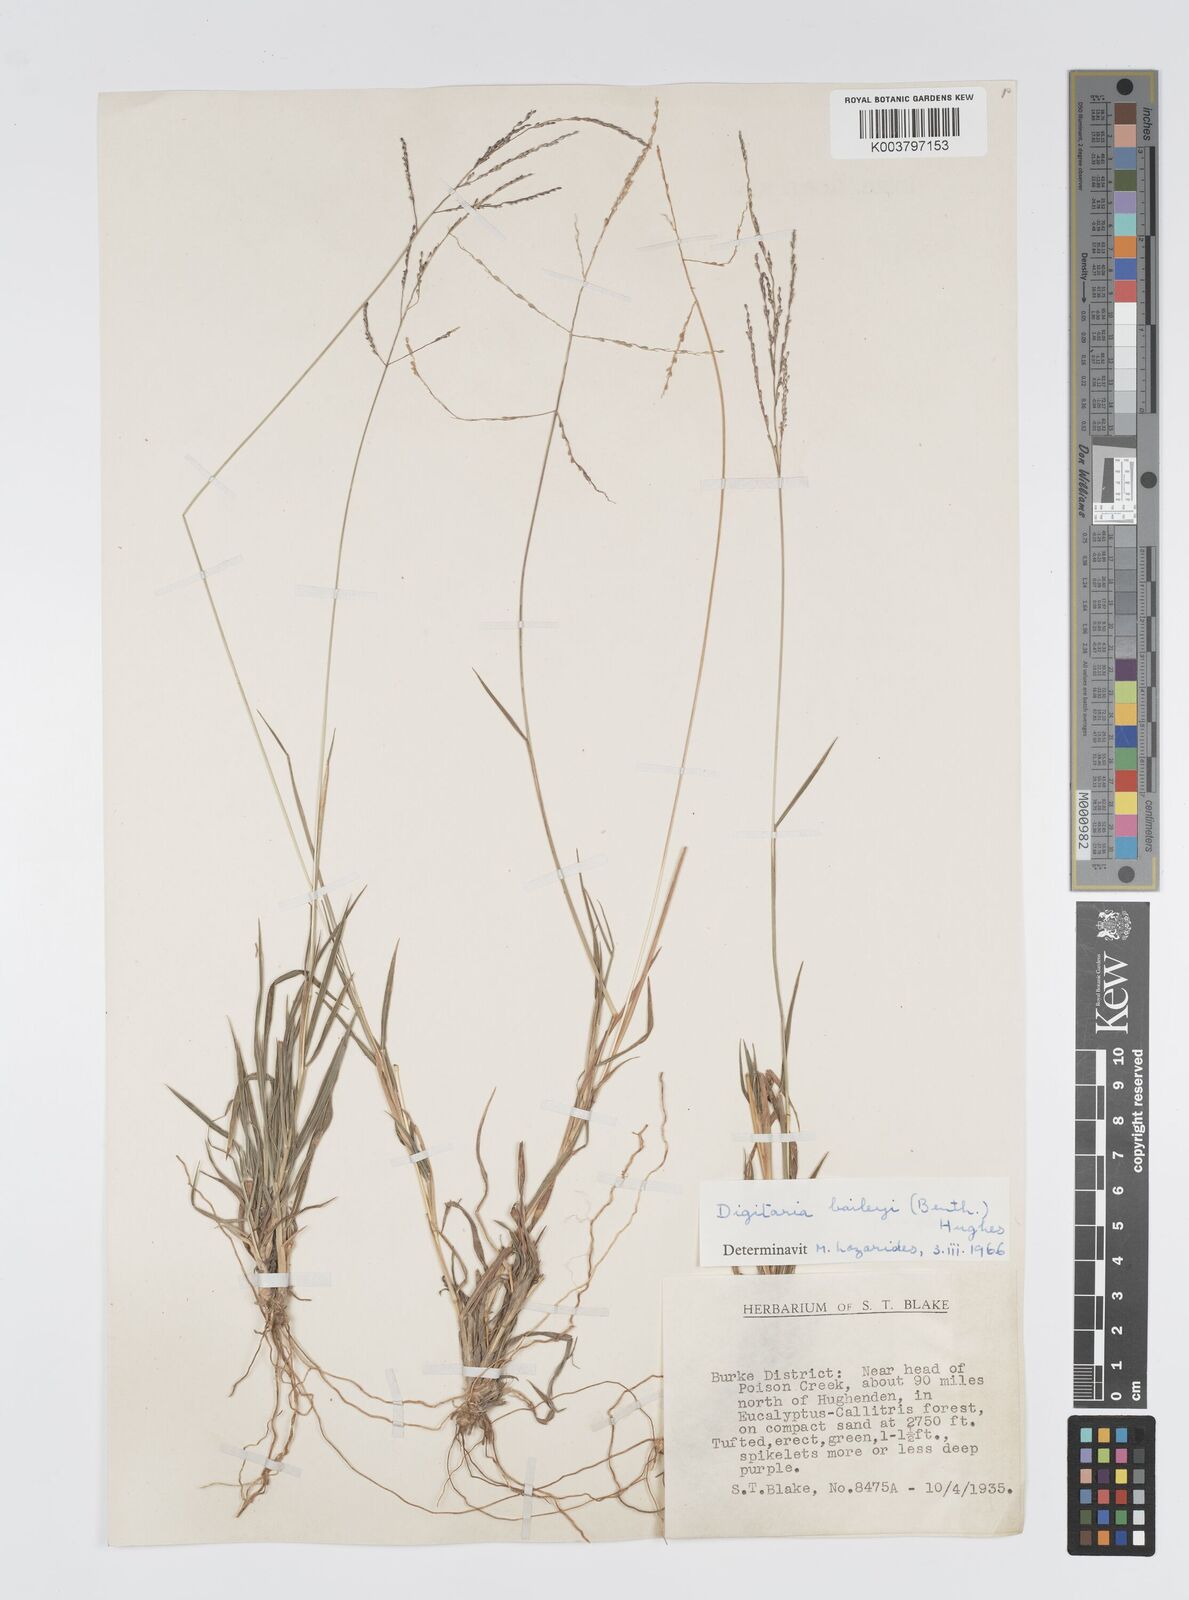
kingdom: Plantae
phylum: Tracheophyta
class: Liliopsida
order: Poales
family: Poaceae
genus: Digitaria
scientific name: Digitaria spec
